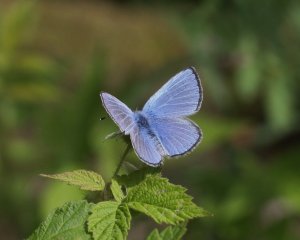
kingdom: Animalia
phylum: Arthropoda
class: Insecta
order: Lepidoptera
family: Lycaenidae
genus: Glaucopsyche
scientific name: Glaucopsyche lygdamus
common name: Silvery Blue
